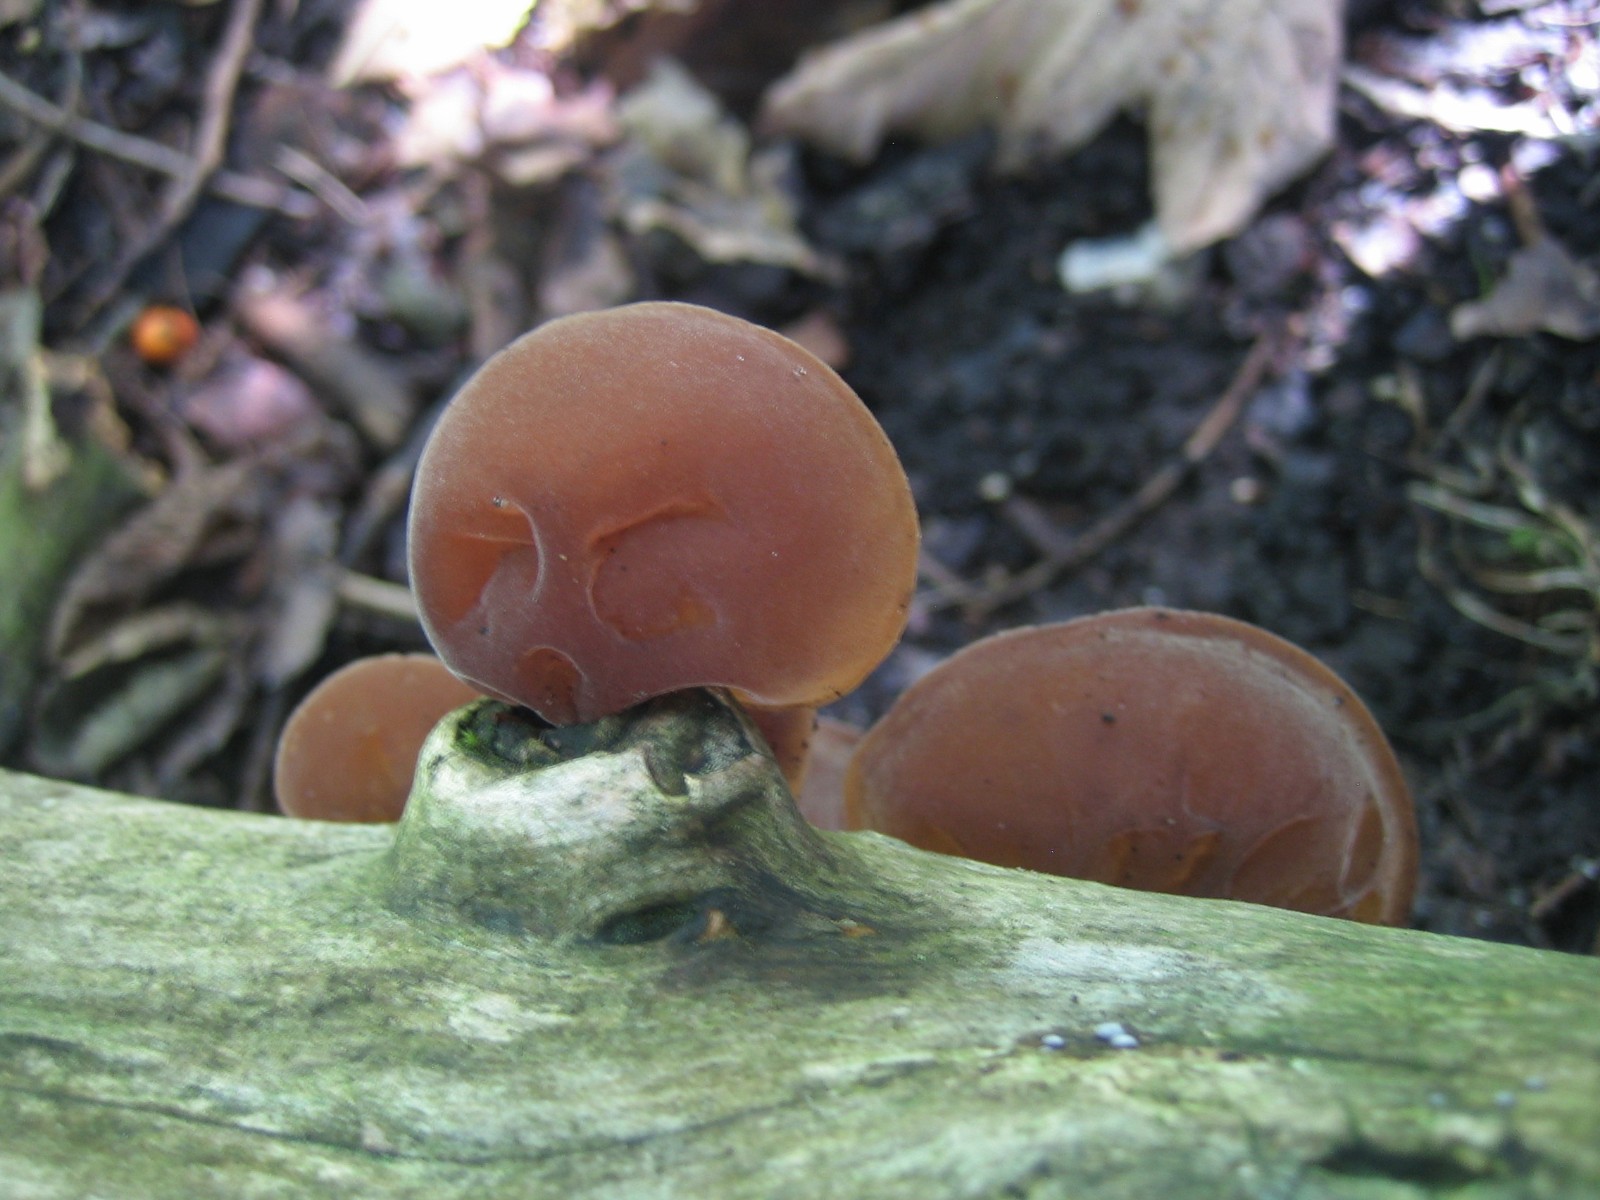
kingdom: Fungi
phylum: Basidiomycota
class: Agaricomycetes
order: Auriculariales
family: Auriculariaceae
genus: Auricularia
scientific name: Auricularia auricula-judae
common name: almindelig judasøre
